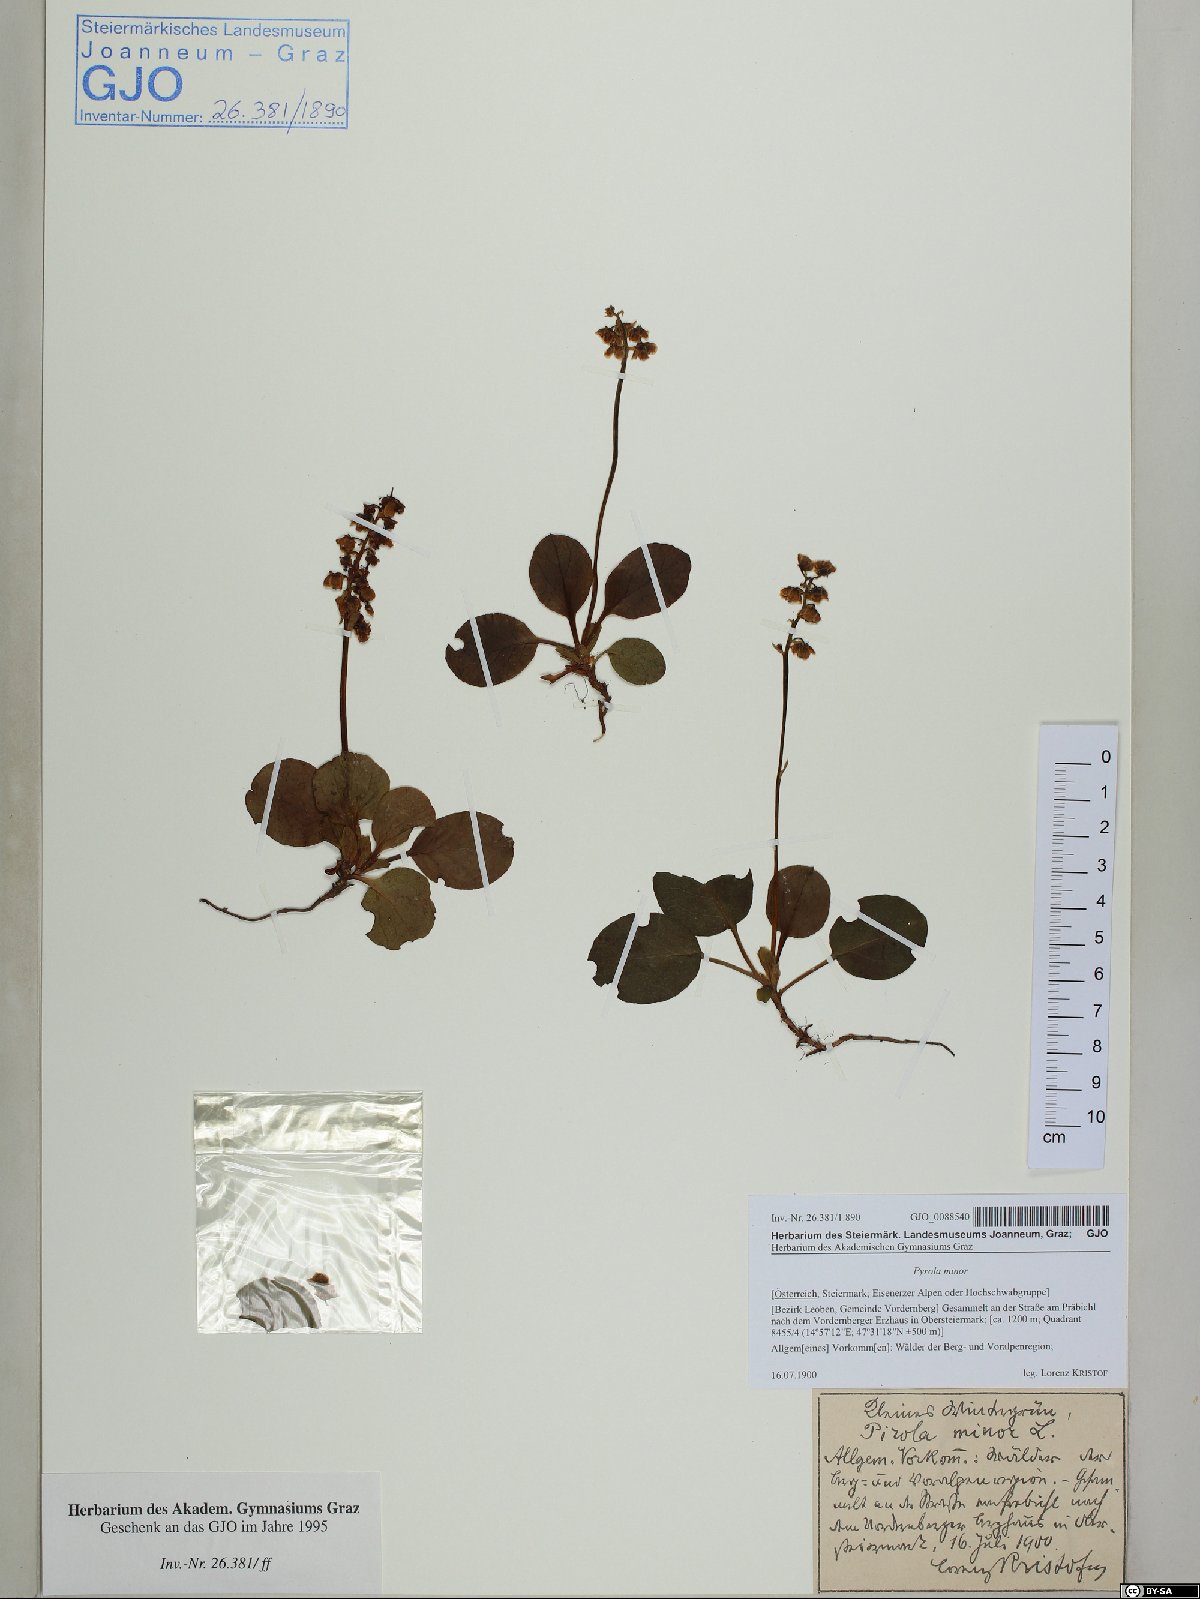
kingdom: Plantae
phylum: Tracheophyta
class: Magnoliopsida
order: Ericales
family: Ericaceae
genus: Pyrola
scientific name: Pyrola minor
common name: Common wintergreen
